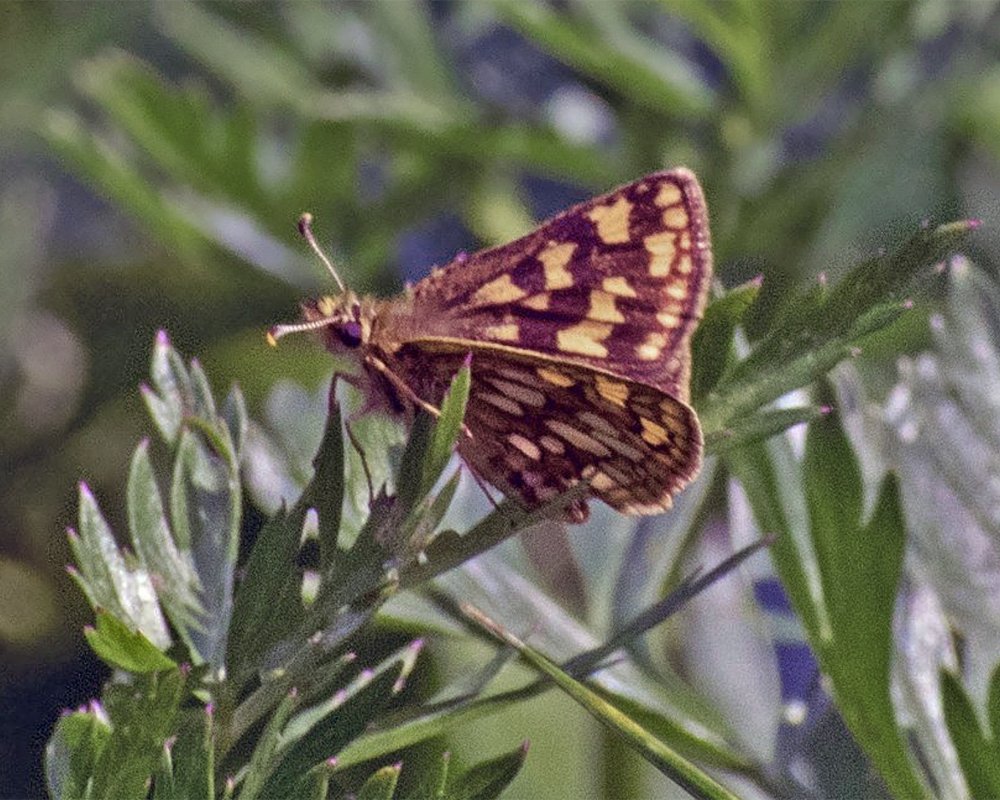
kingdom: Animalia
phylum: Arthropoda
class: Insecta
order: Lepidoptera
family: Hesperiidae
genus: Carterocephalus
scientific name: Carterocephalus palaemon
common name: Chequered Skipper
